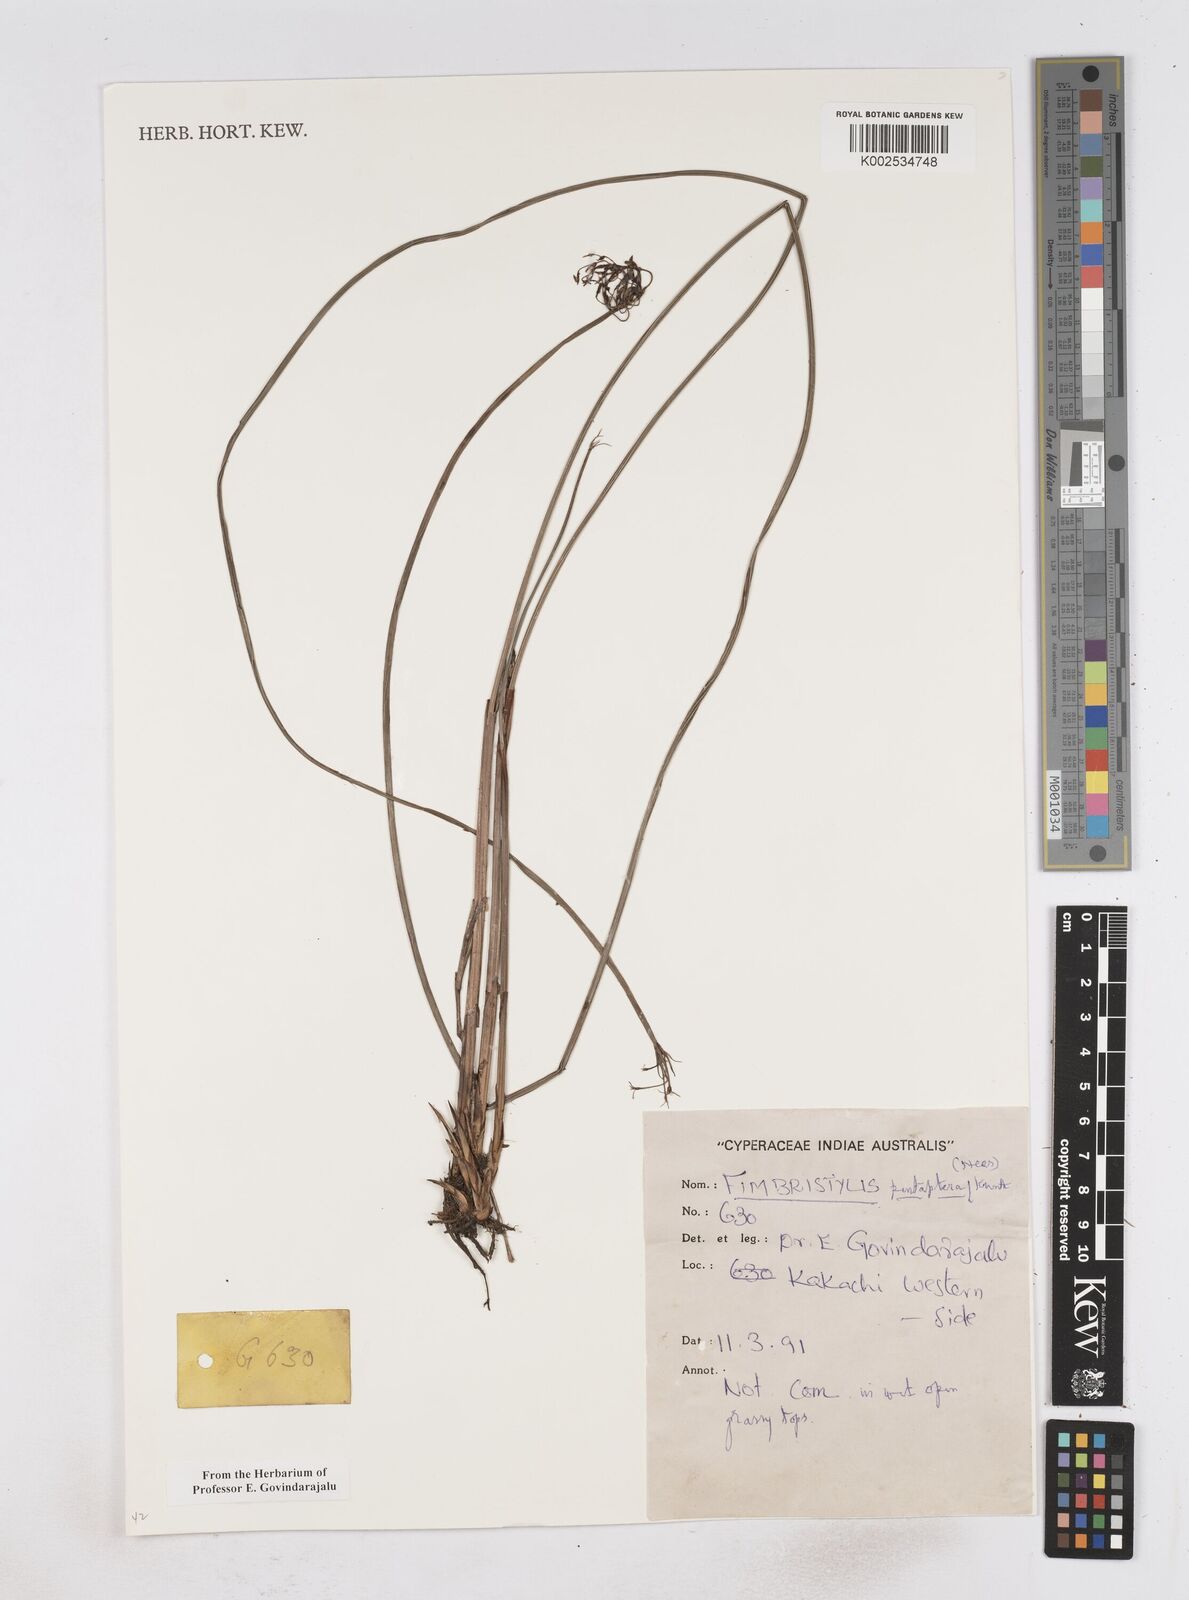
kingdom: Plantae
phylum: Tracheophyta
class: Liliopsida
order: Poales
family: Cyperaceae
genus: Fimbristylis
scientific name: Fimbristylis salbundia
